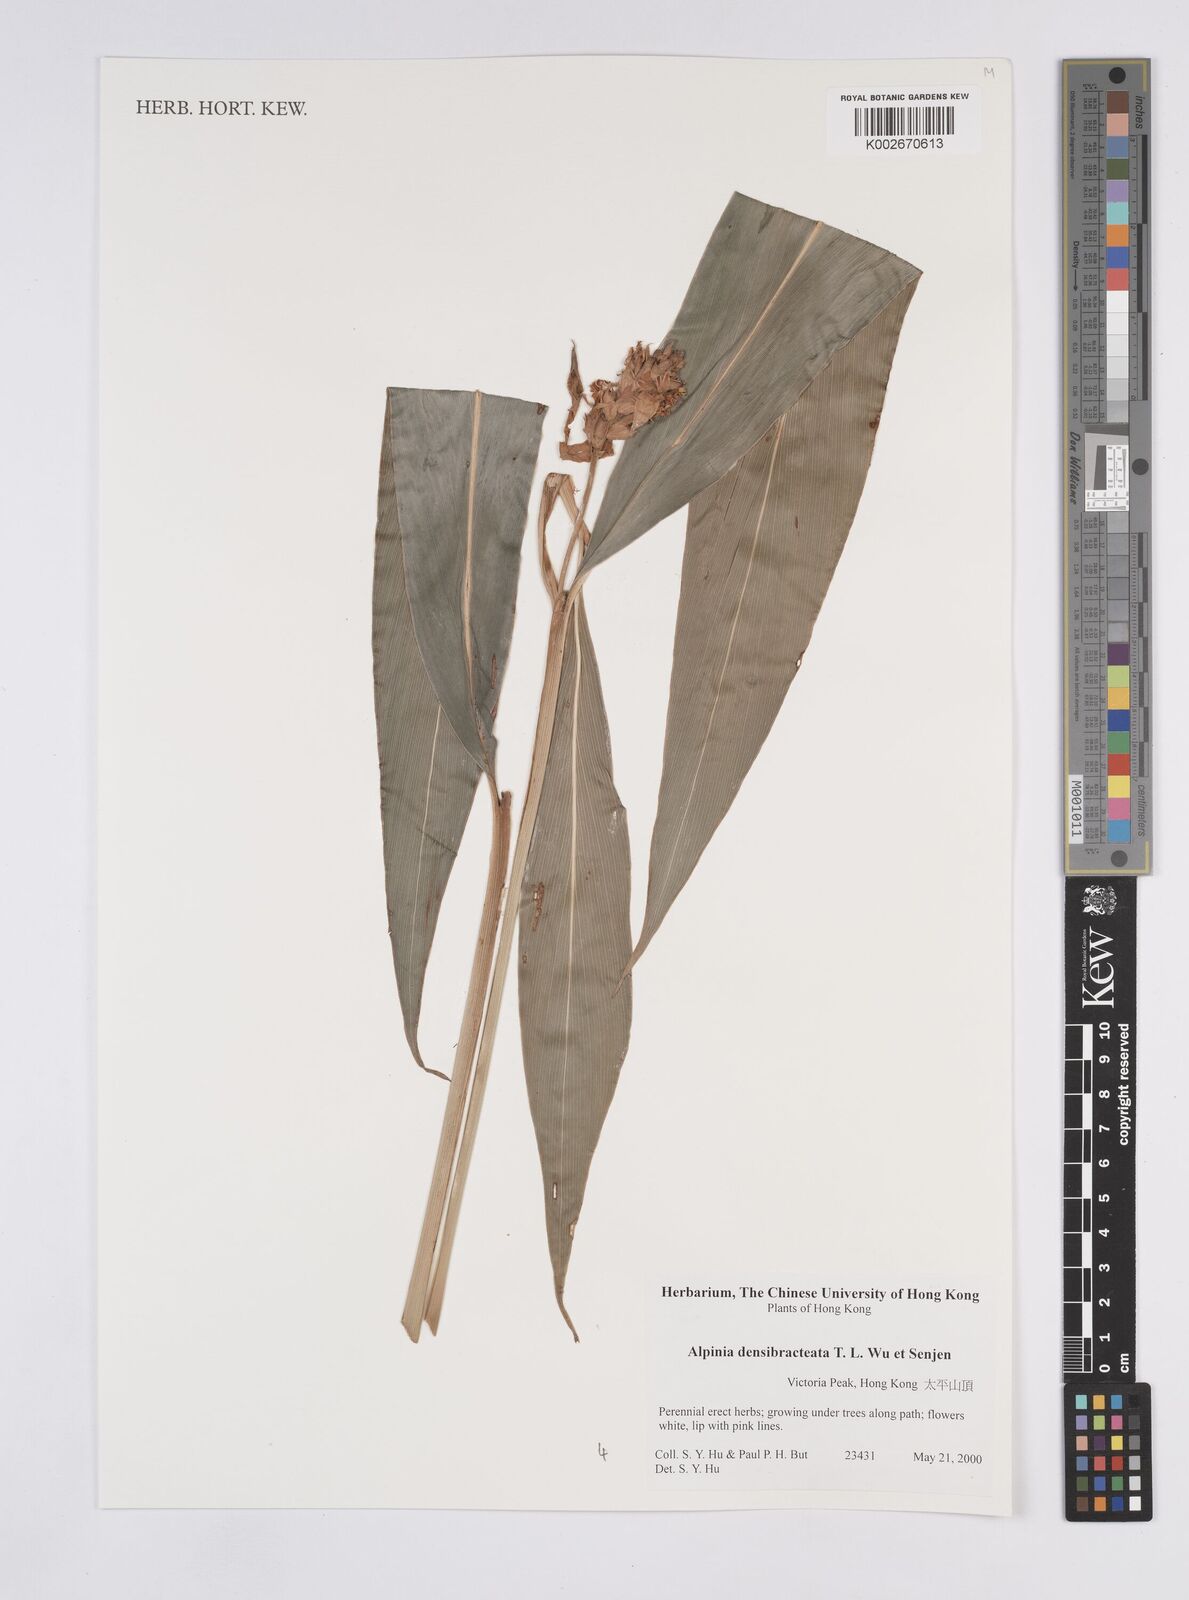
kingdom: Plantae
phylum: Tracheophyta
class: Liliopsida
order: Zingiberales
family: Zingiberaceae
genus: Alpinia
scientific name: Alpinia densibracteata
